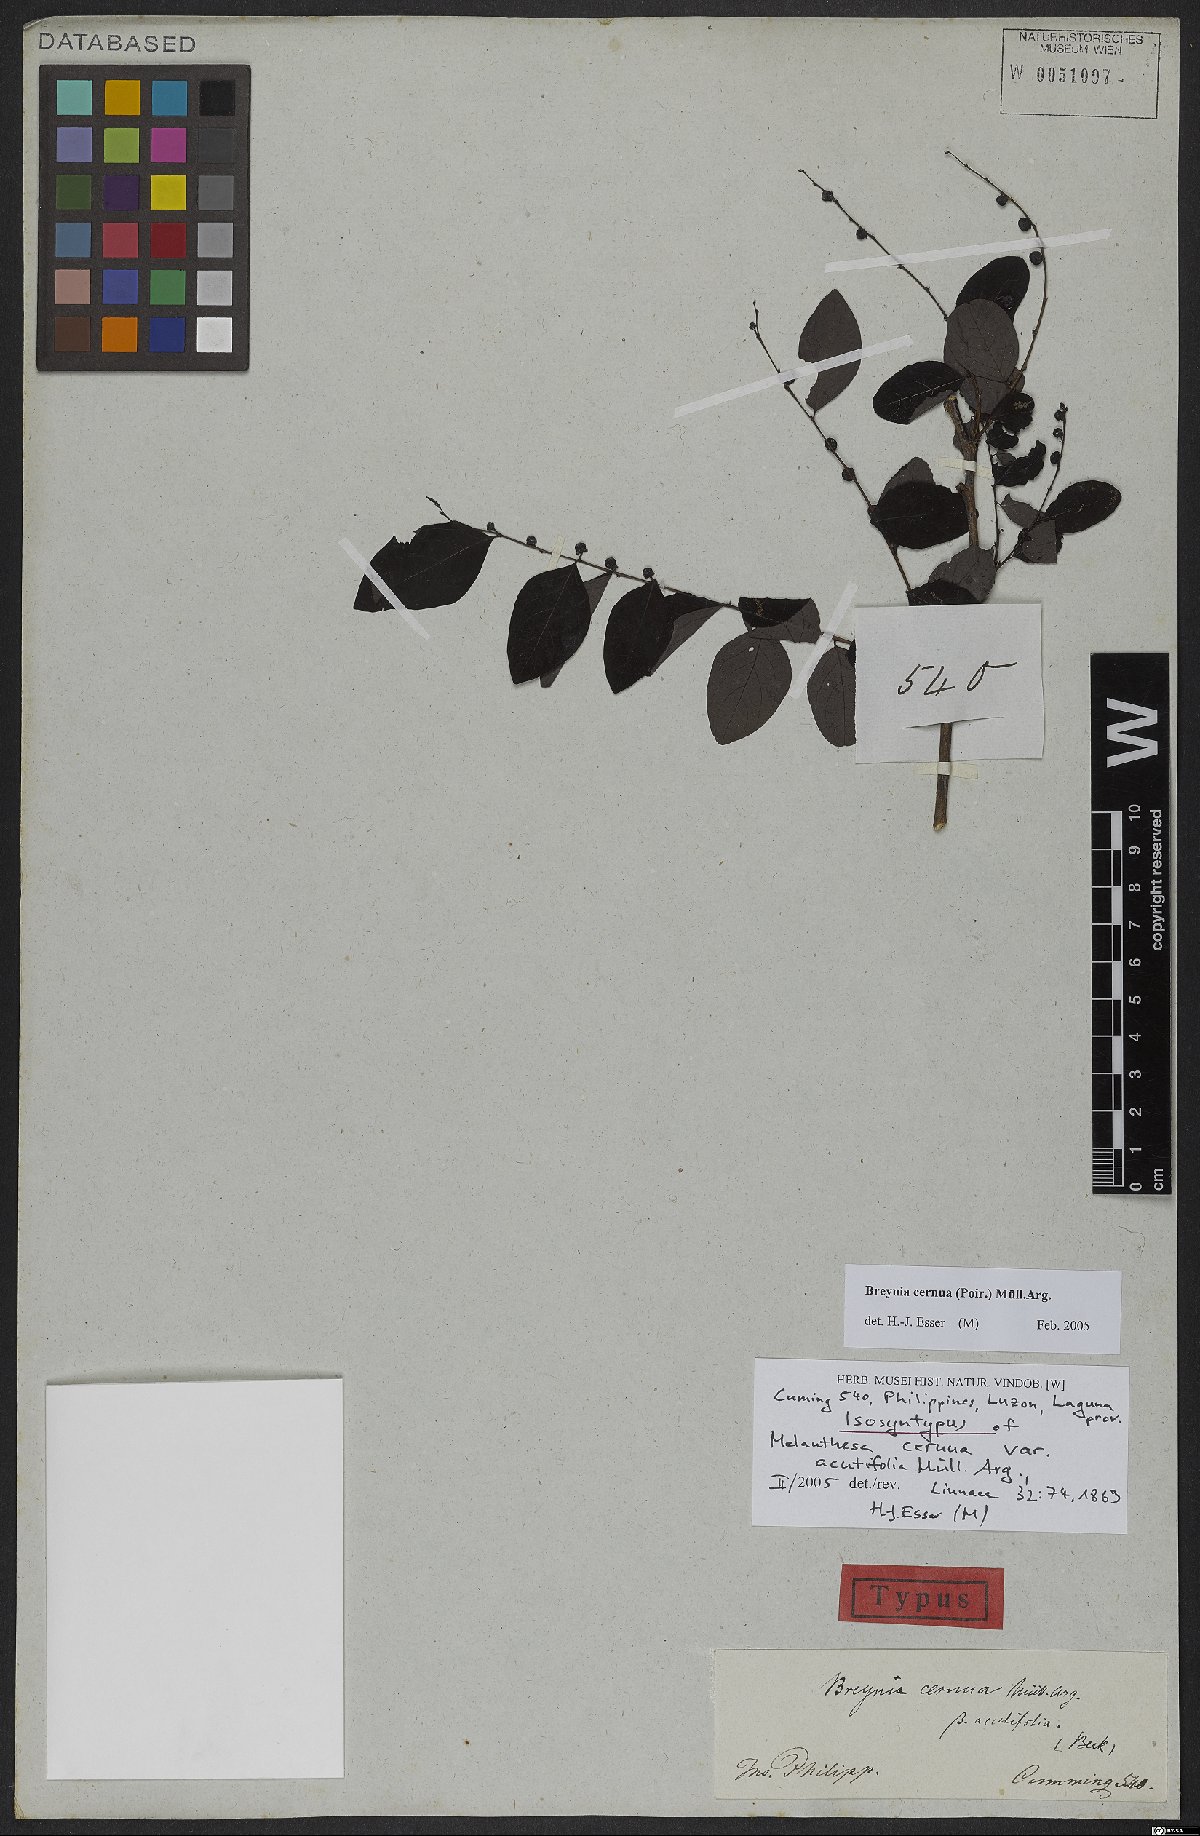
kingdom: Plantae
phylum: Tracheophyta
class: Magnoliopsida
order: Malpighiales
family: Phyllanthaceae
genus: Breynia
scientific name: Breynia cernua
